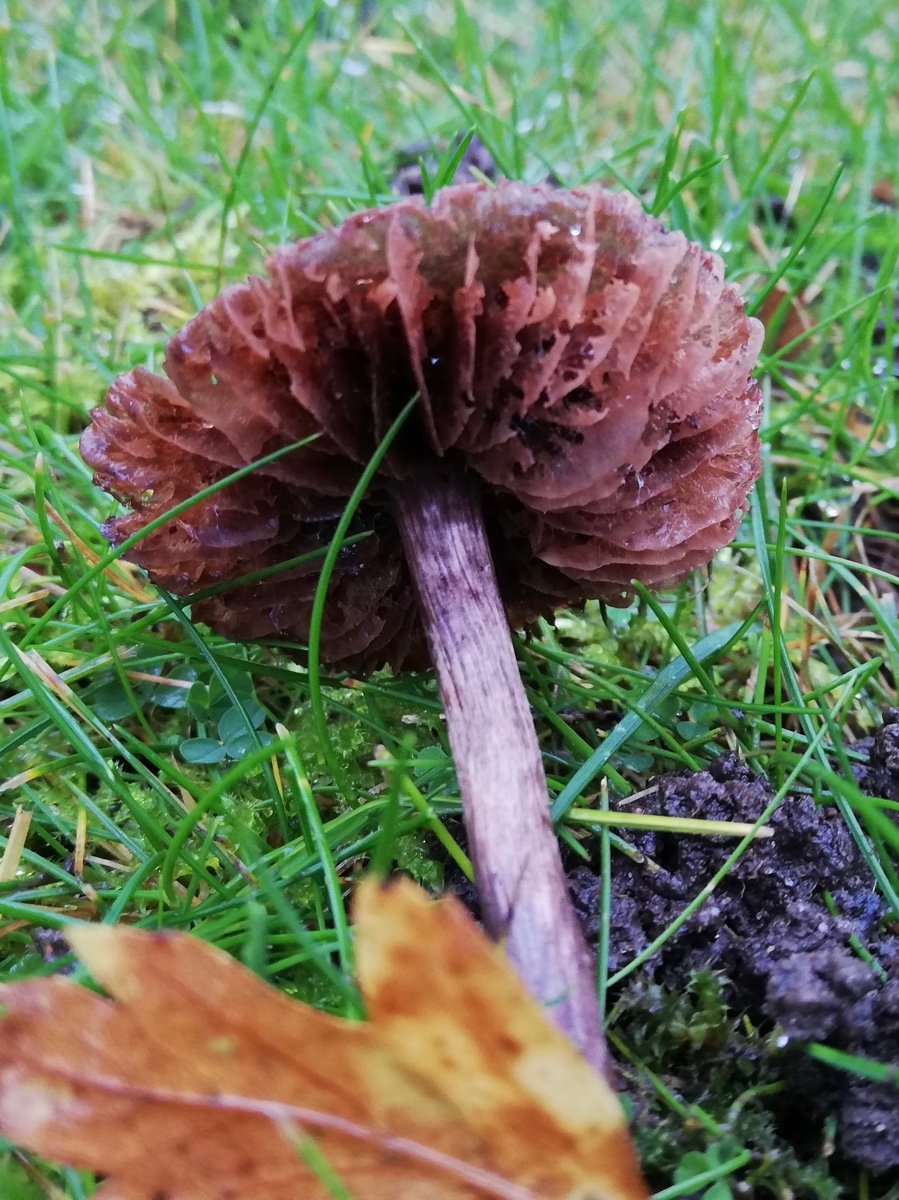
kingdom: Fungi
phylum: Basidiomycota
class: Agaricomycetes
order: Agaricales
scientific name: Agaricales
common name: champignonordenen
